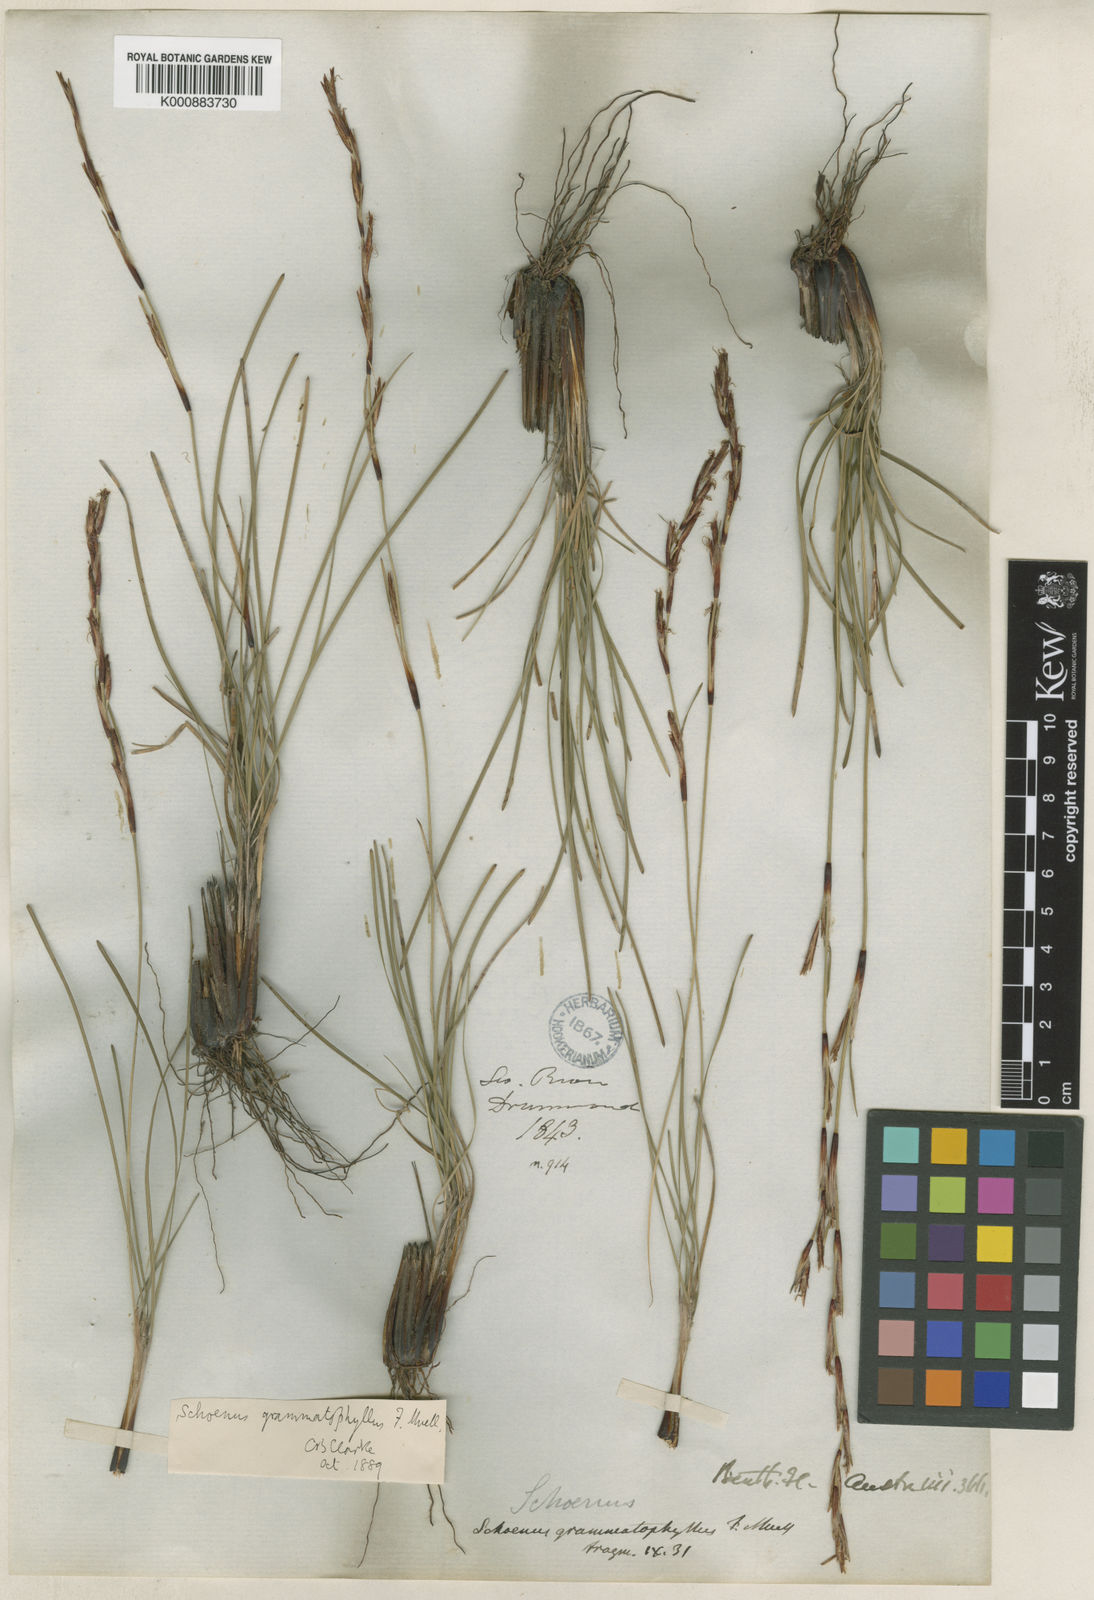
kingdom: Plantae
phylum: Tracheophyta
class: Liliopsida
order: Poales
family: Cyperaceae
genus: Schoenus
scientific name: Schoenus grammatophyllus
